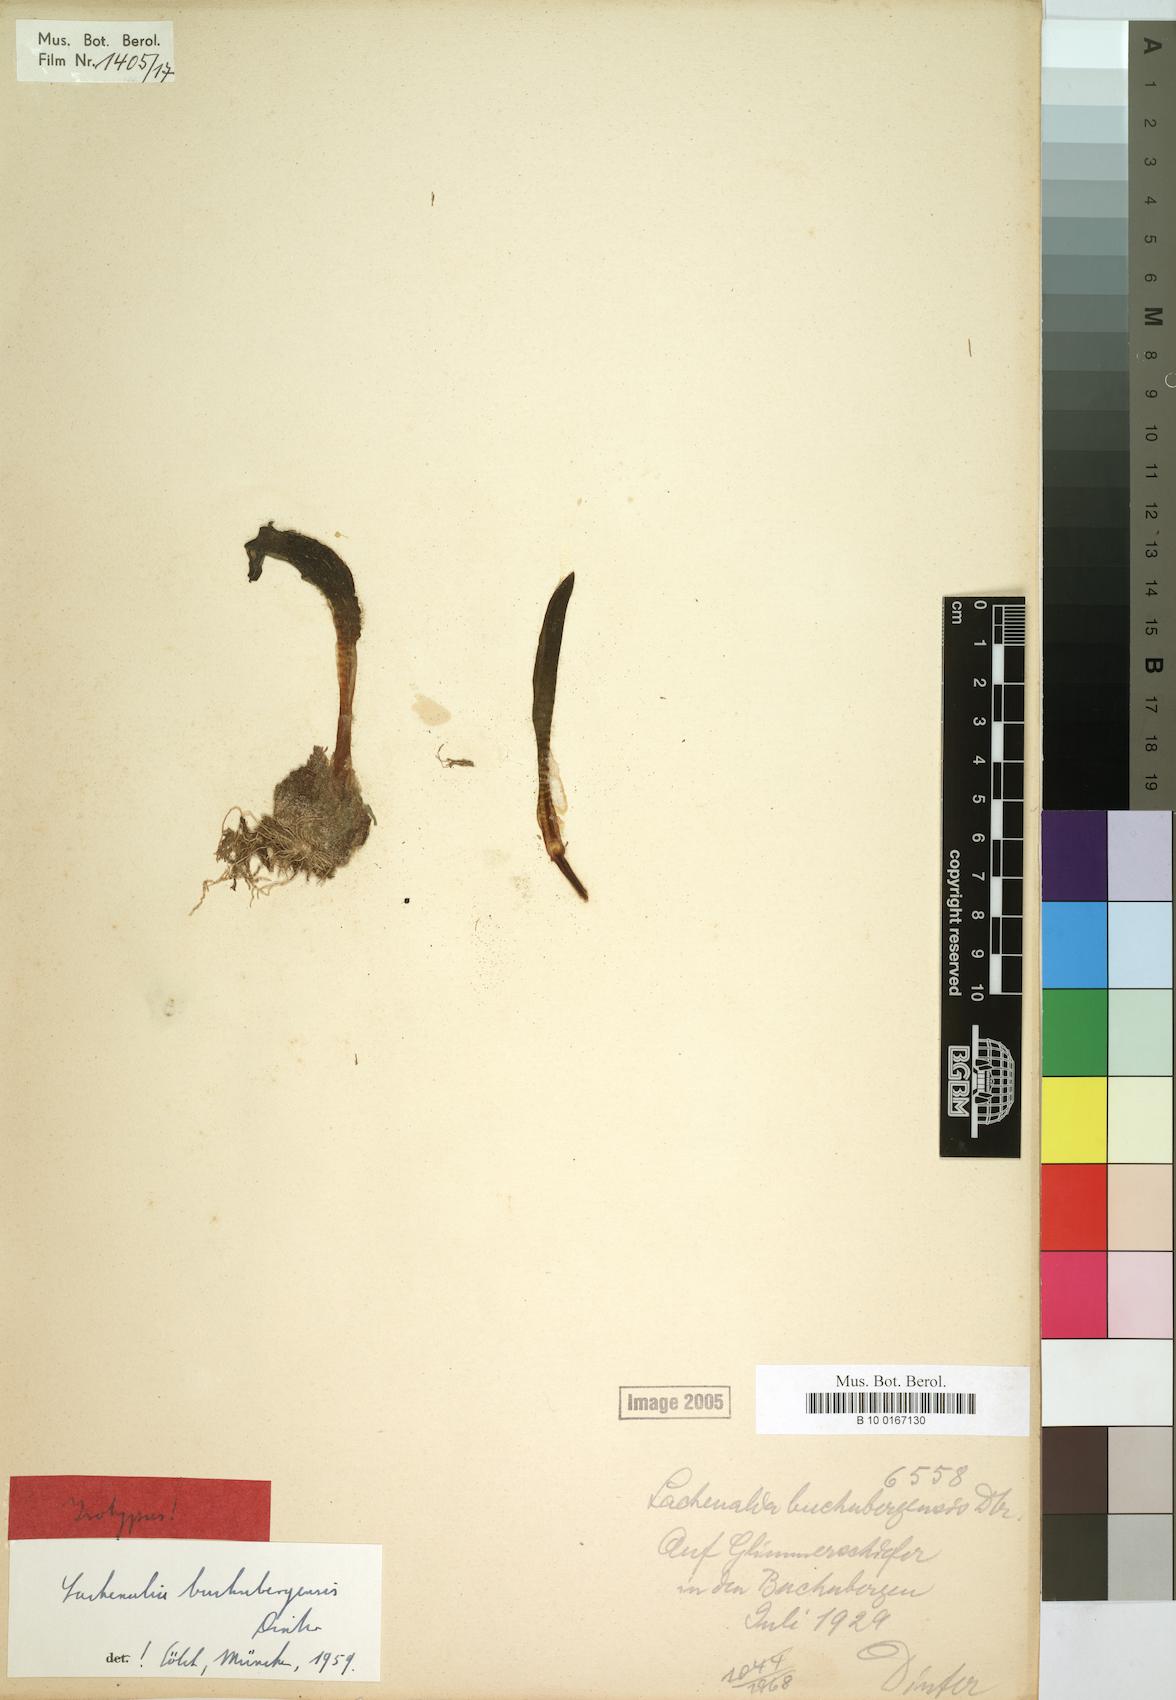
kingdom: Plantae
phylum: Tracheophyta
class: Liliopsida
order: Asparagales
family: Asparagaceae
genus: Lachenalia
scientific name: Lachenalia buchubergensis
